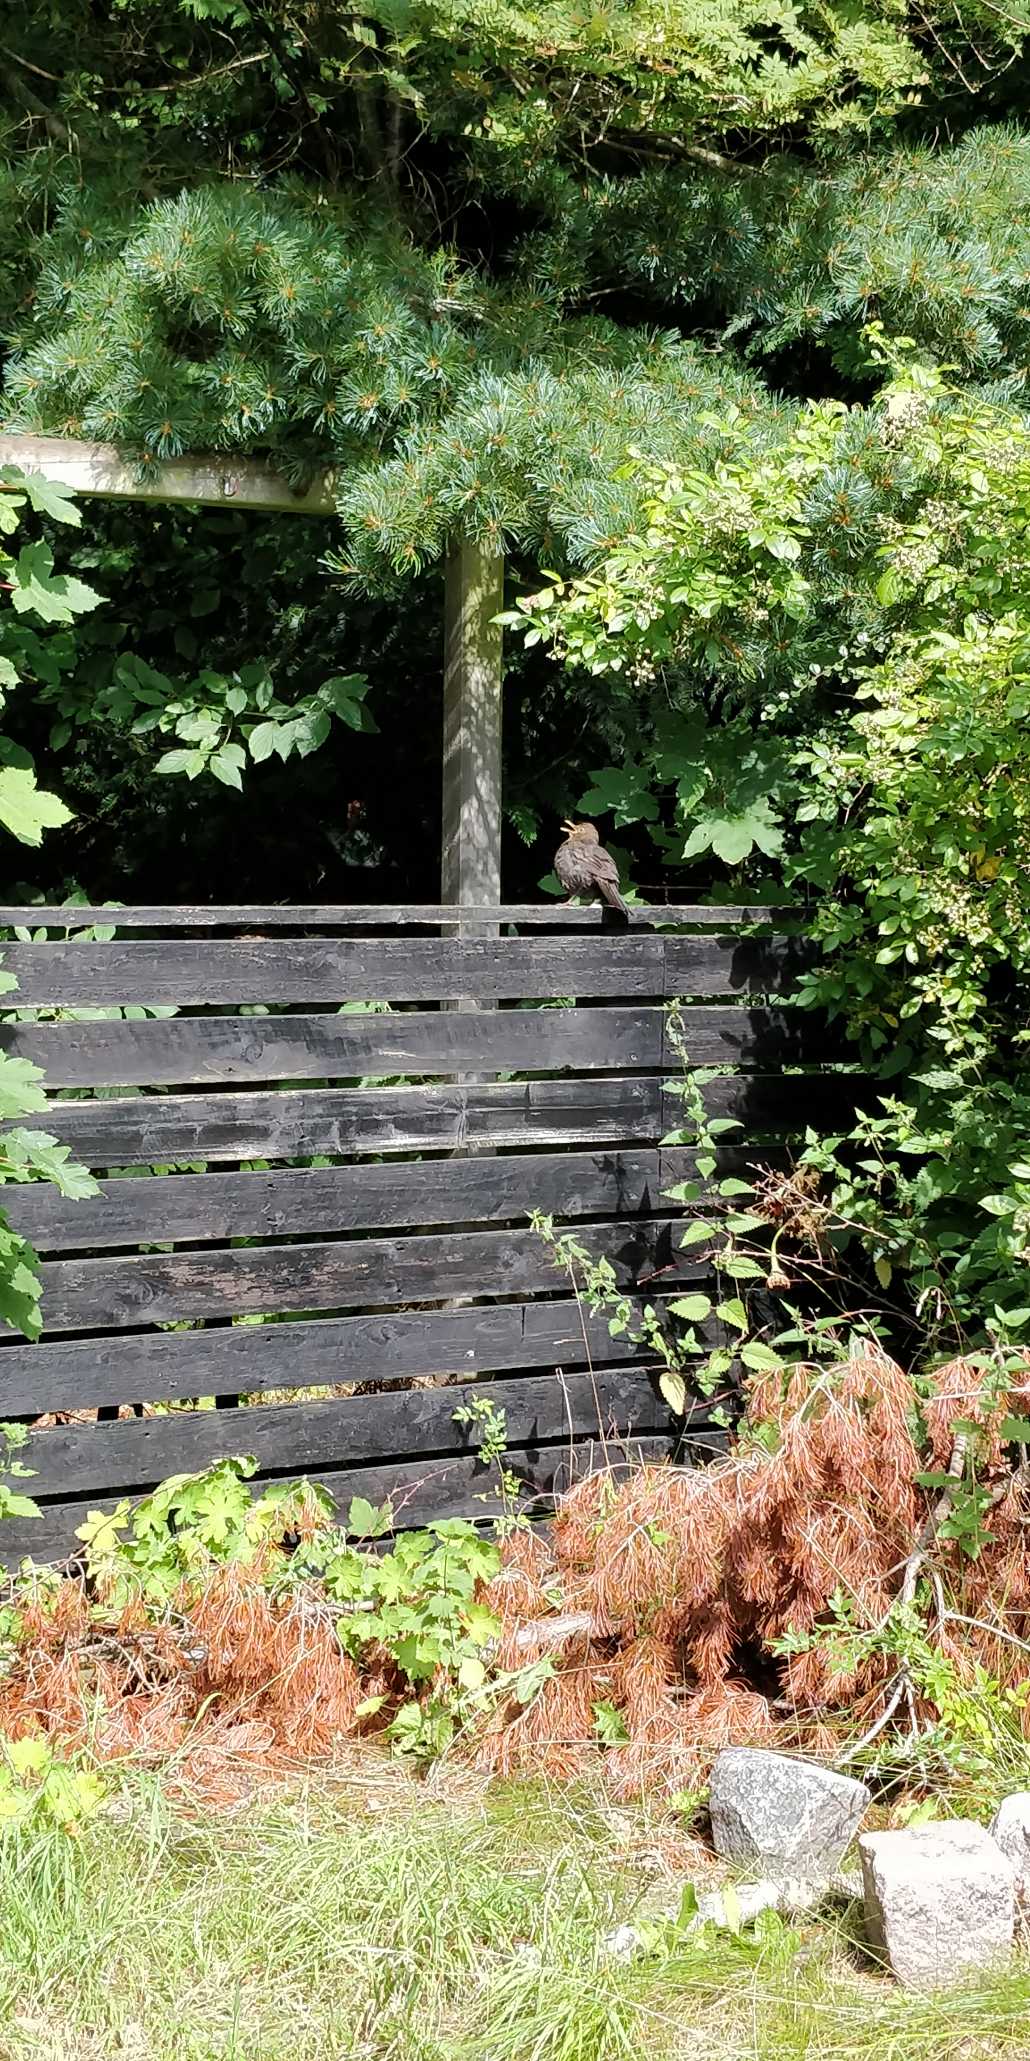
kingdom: Animalia
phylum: Chordata
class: Aves
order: Passeriformes
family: Turdidae
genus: Turdus
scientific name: Turdus merula
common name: Solsort
